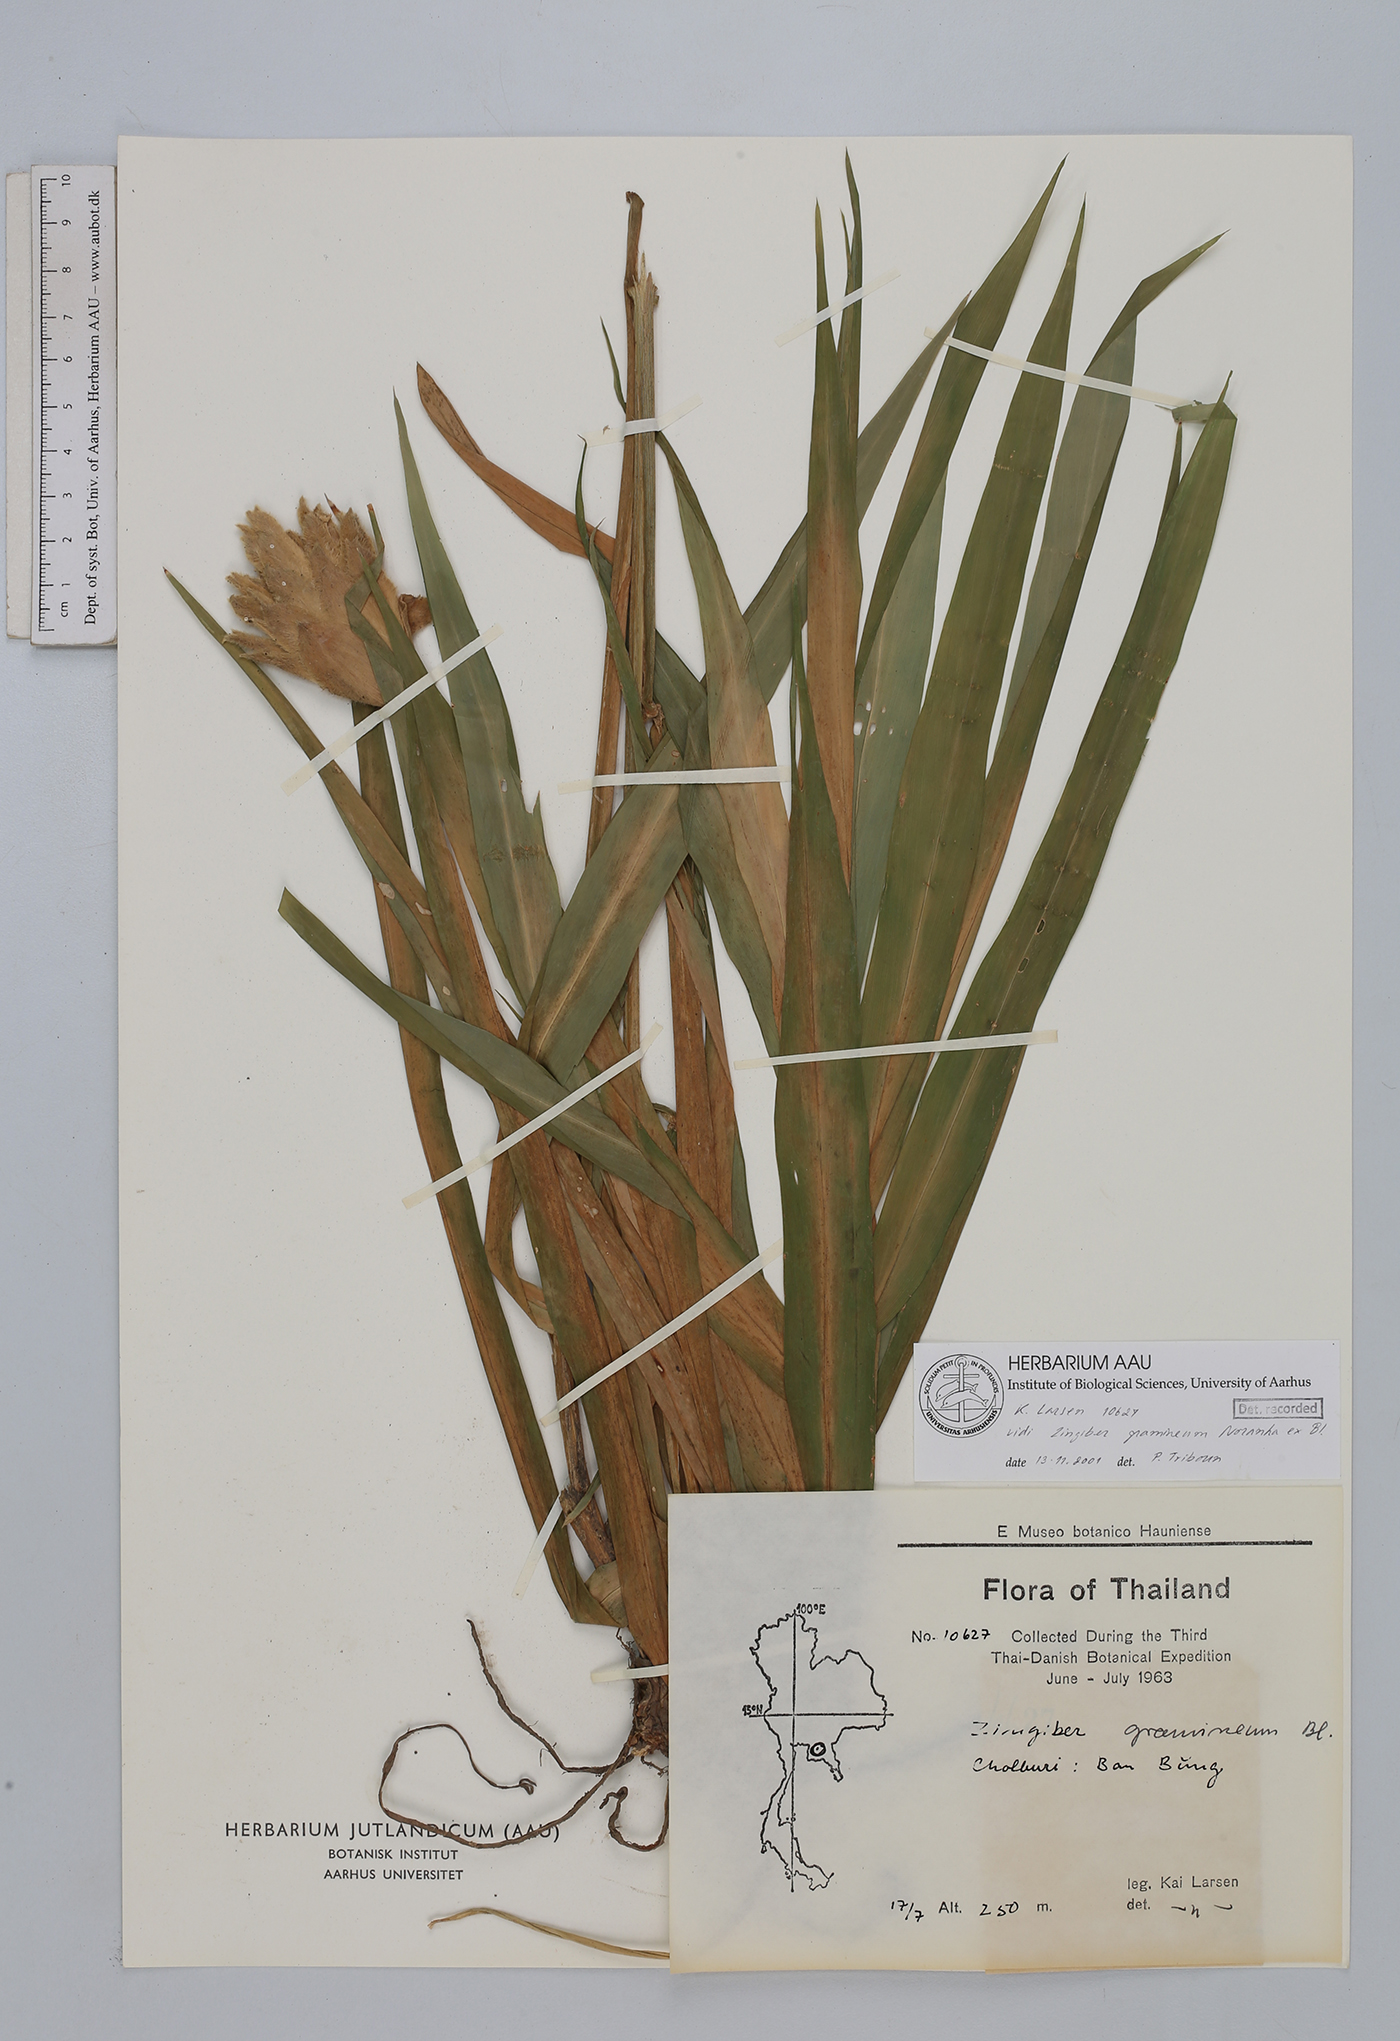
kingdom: Plantae
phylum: Tracheophyta
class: Liliopsida
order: Zingiberales
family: Zingiberaceae
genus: Zingiber
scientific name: Zingiber gramineum
